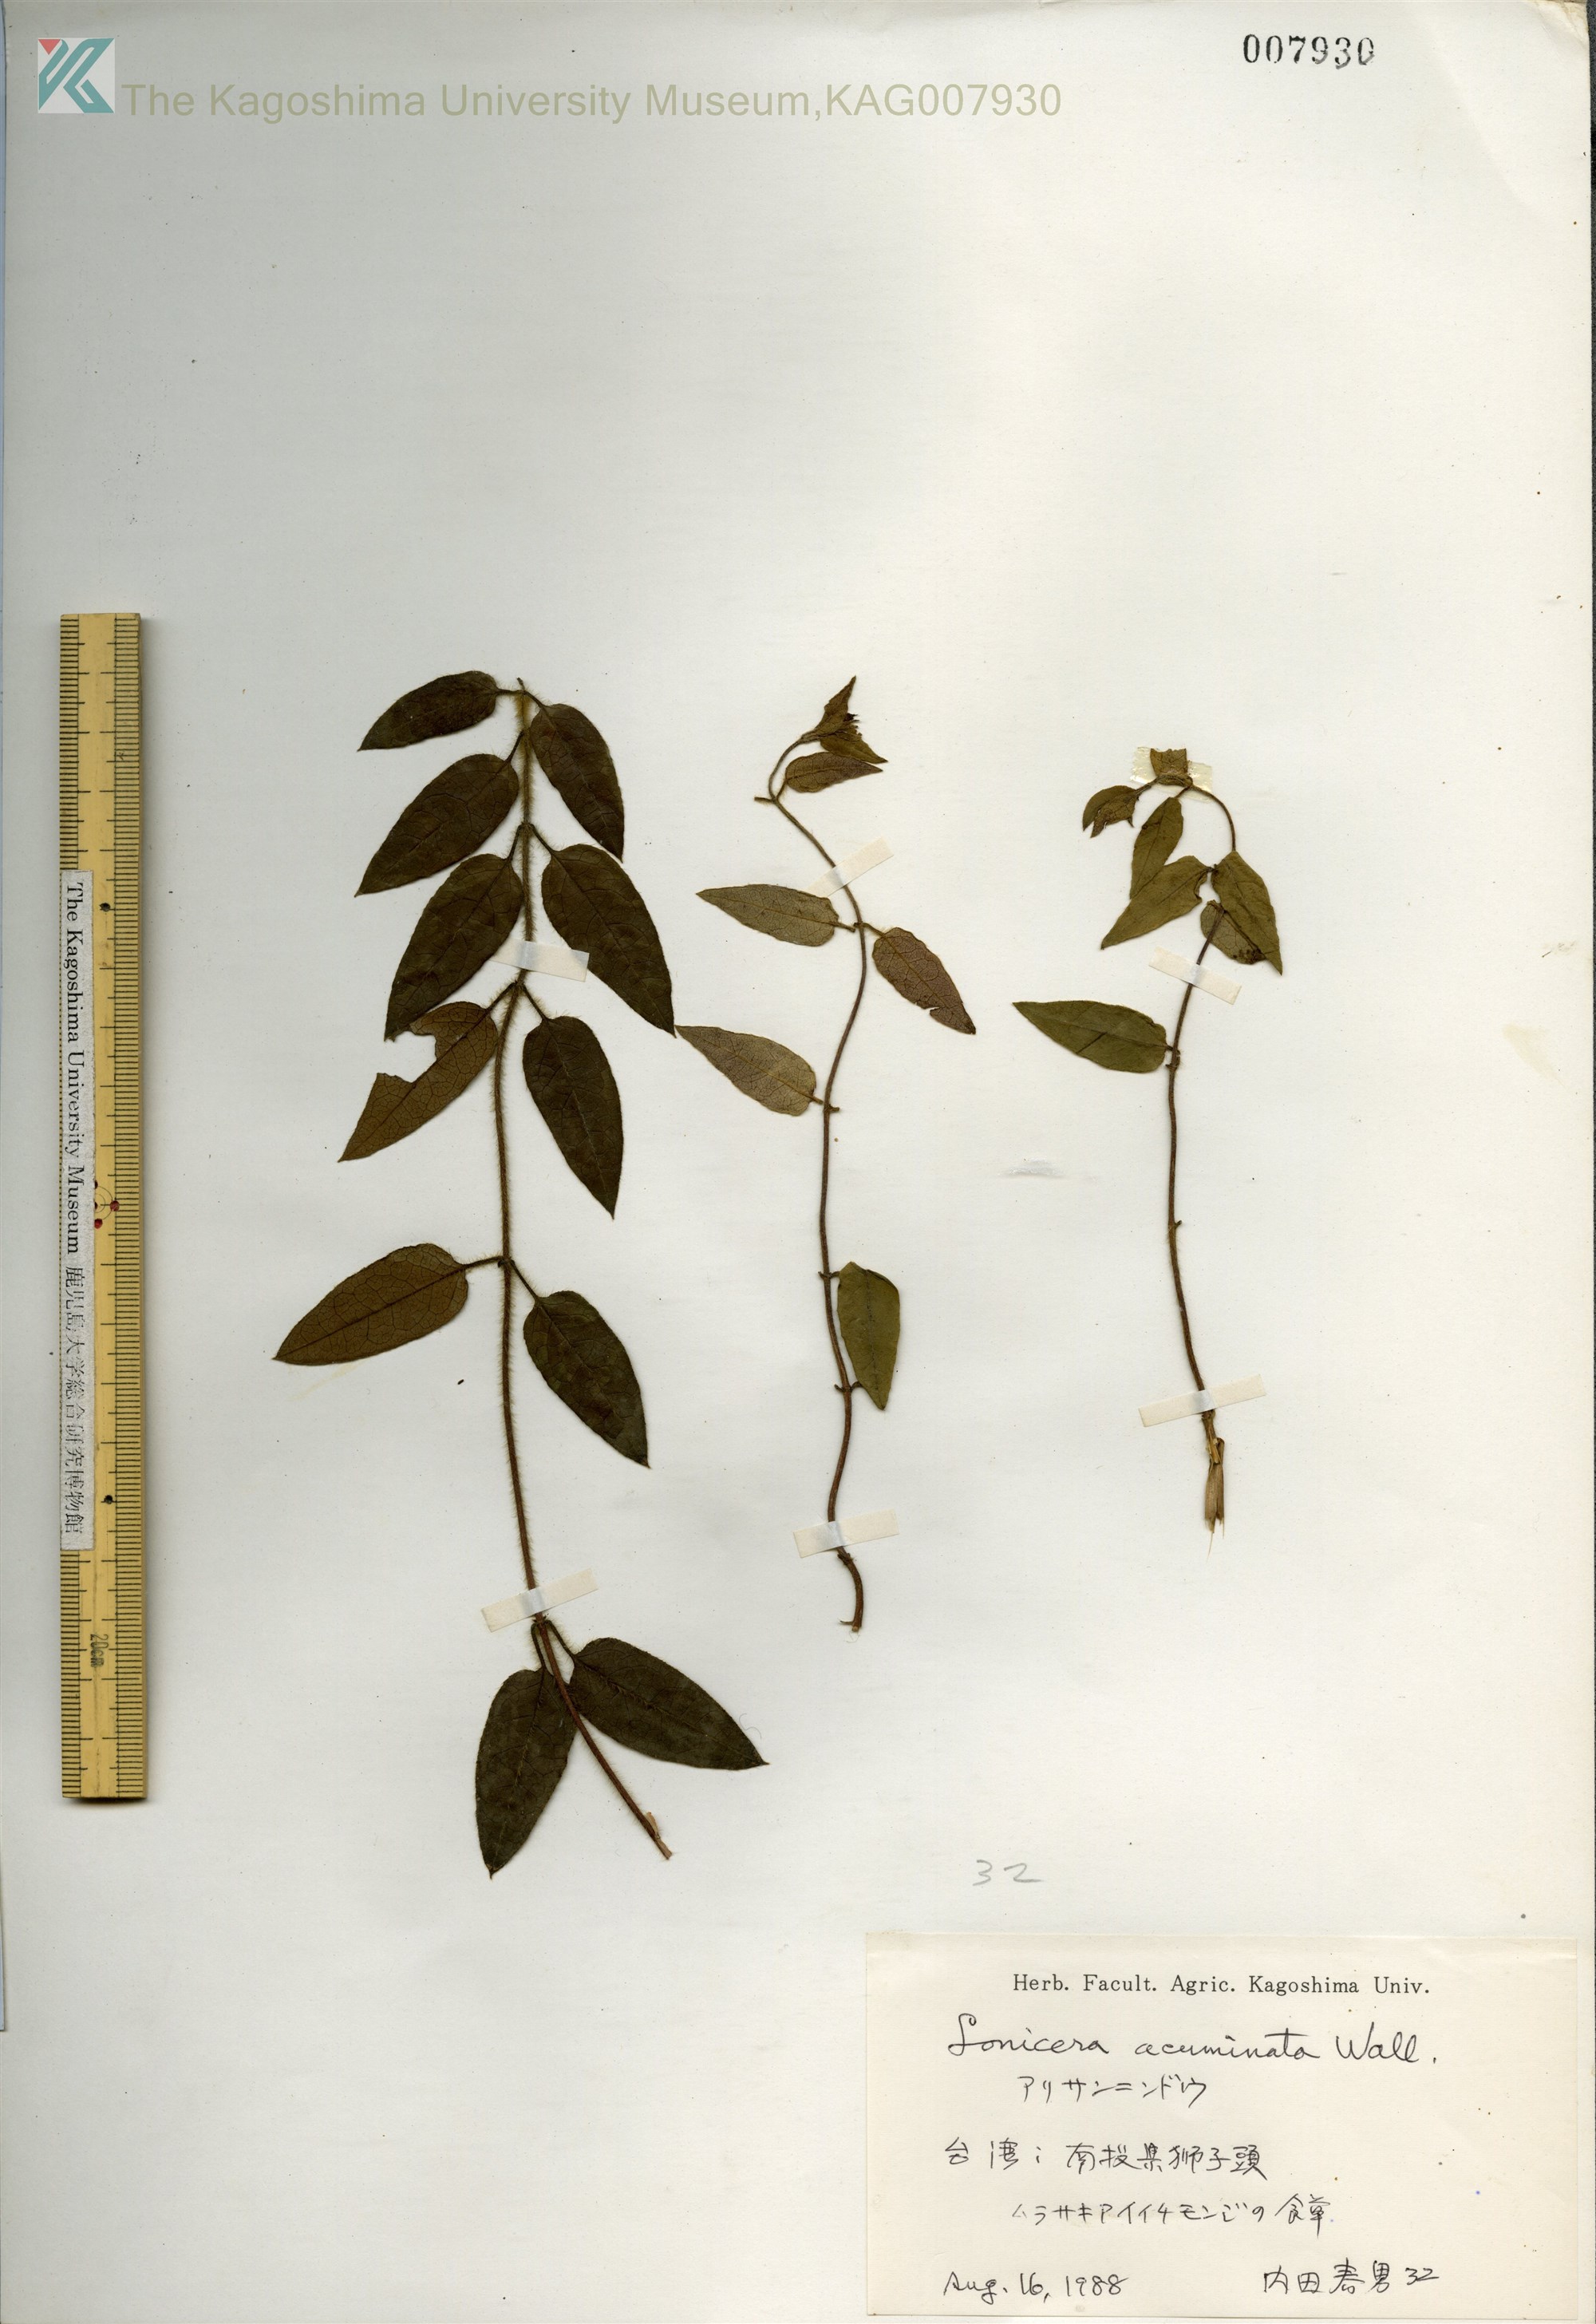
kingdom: Plantae
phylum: Tracheophyta
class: Magnoliopsida
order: Dipsacales
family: Caprifoliaceae
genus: Lonicera
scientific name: Lonicera acuminata
